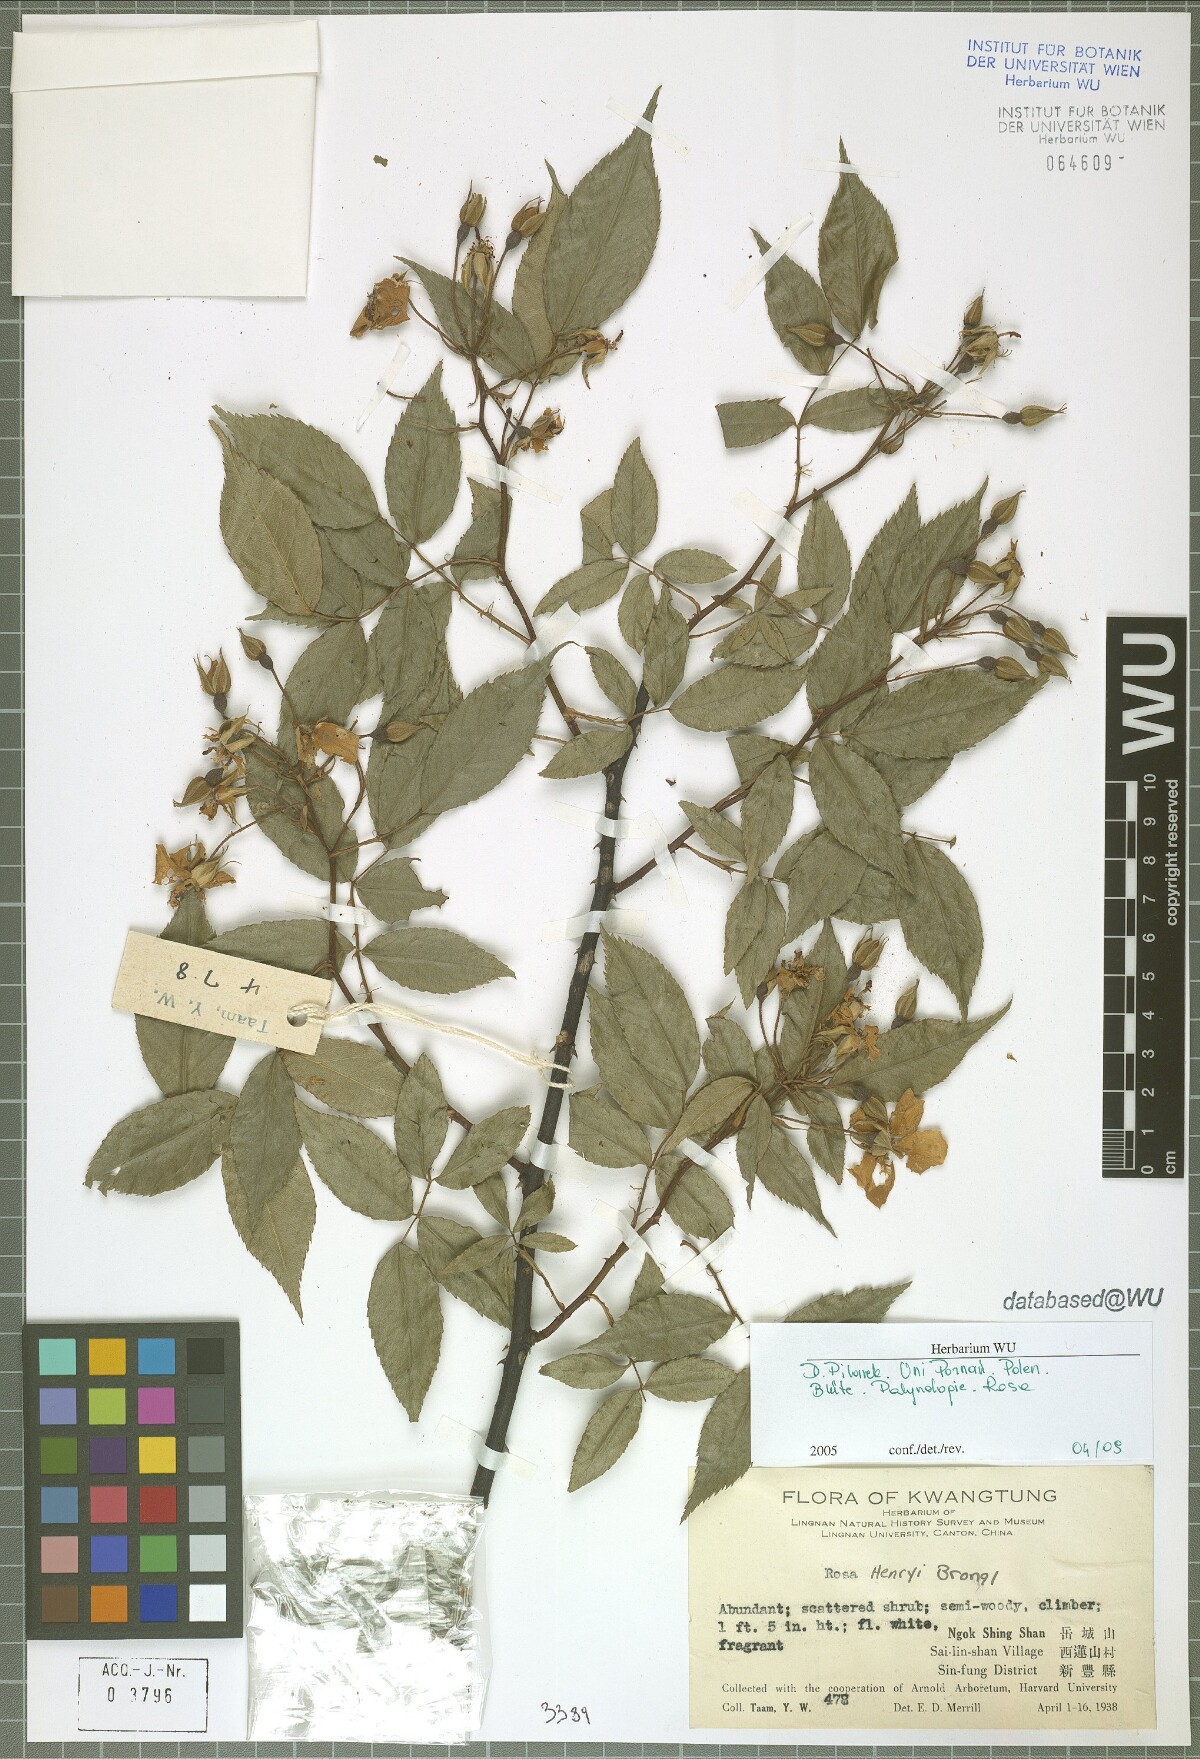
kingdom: Plantae
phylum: Tracheophyta
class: Magnoliopsida
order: Rosales
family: Rosaceae
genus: Rosa
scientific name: Rosa henryi
